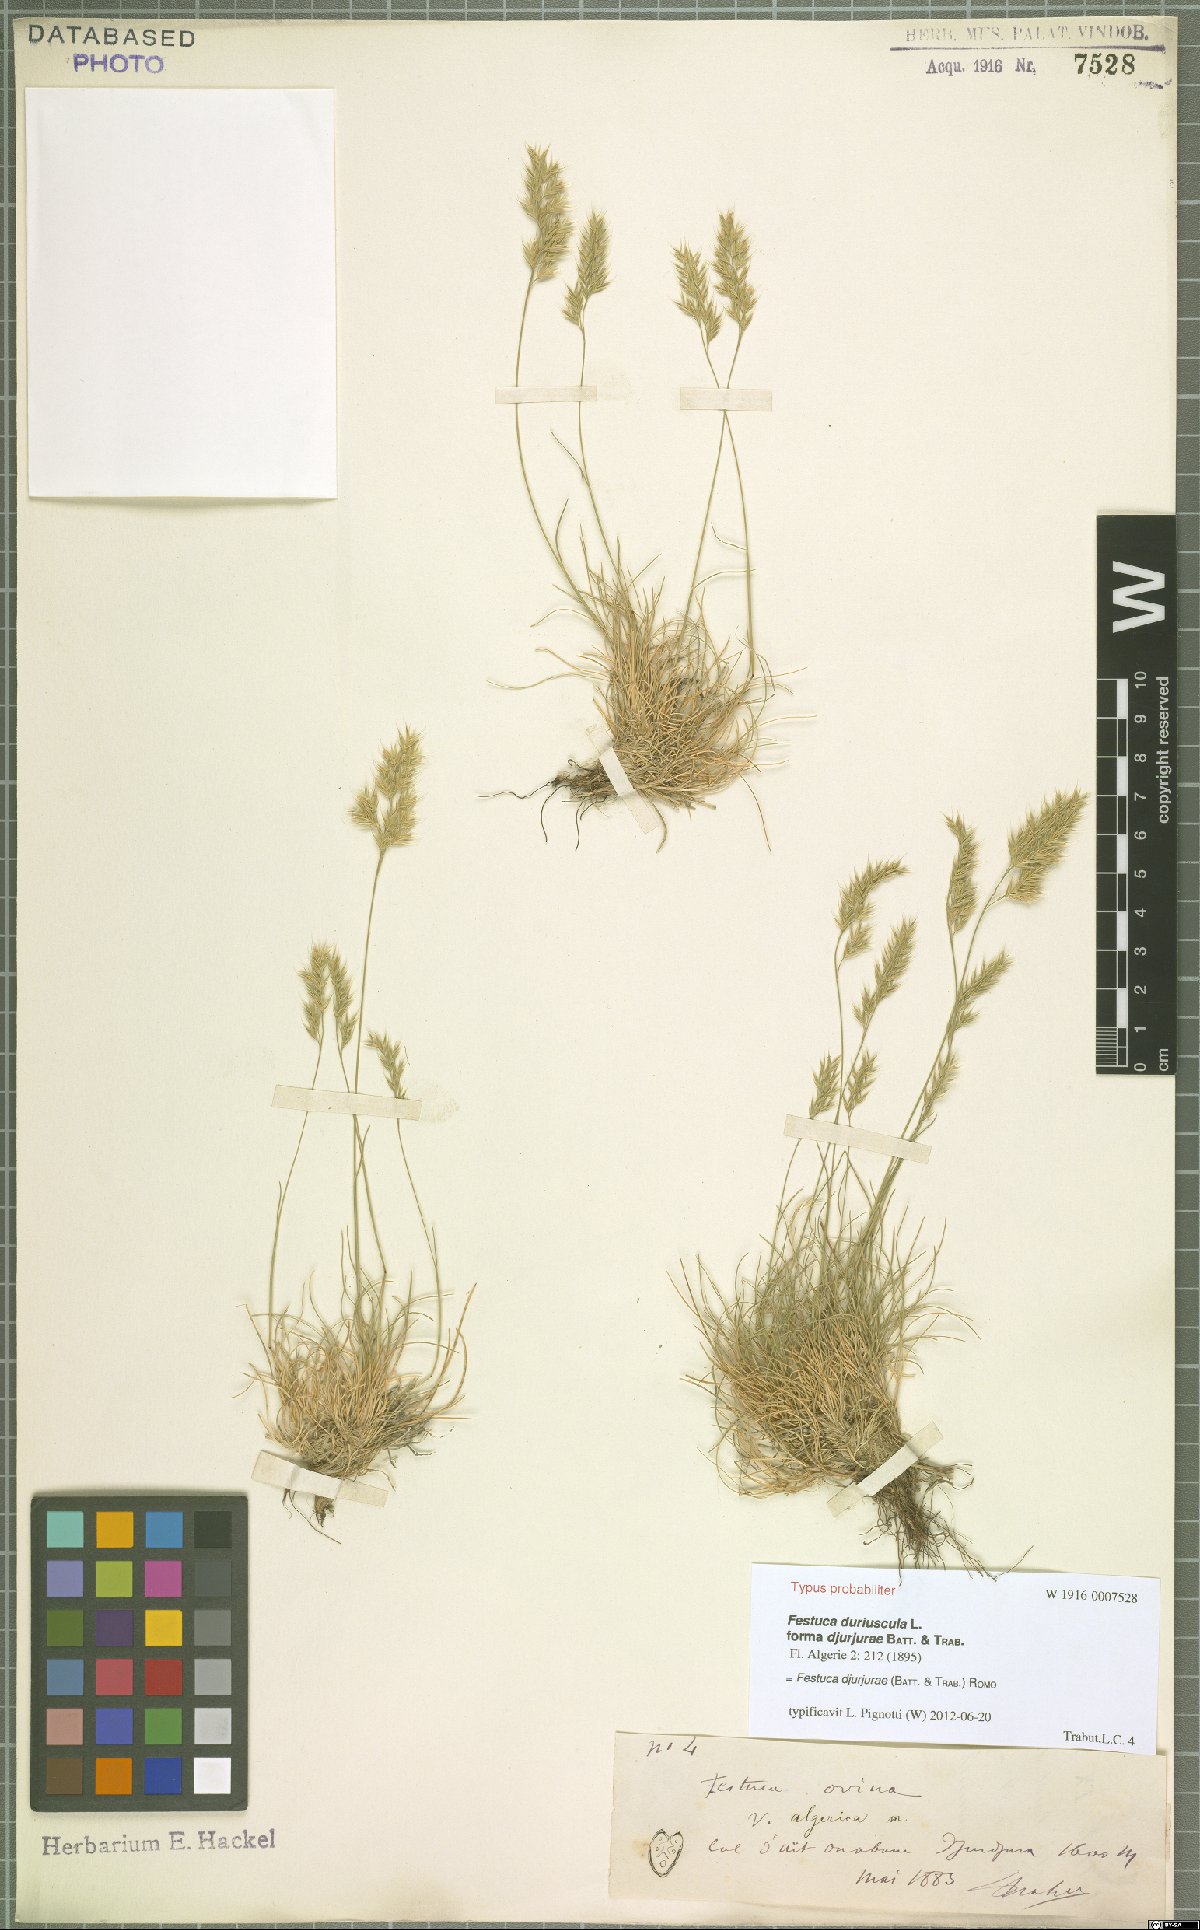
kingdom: Plantae
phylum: Tracheophyta
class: Liliopsida
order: Poales
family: Poaceae
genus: Festuca
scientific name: Festuca djurdjurae
